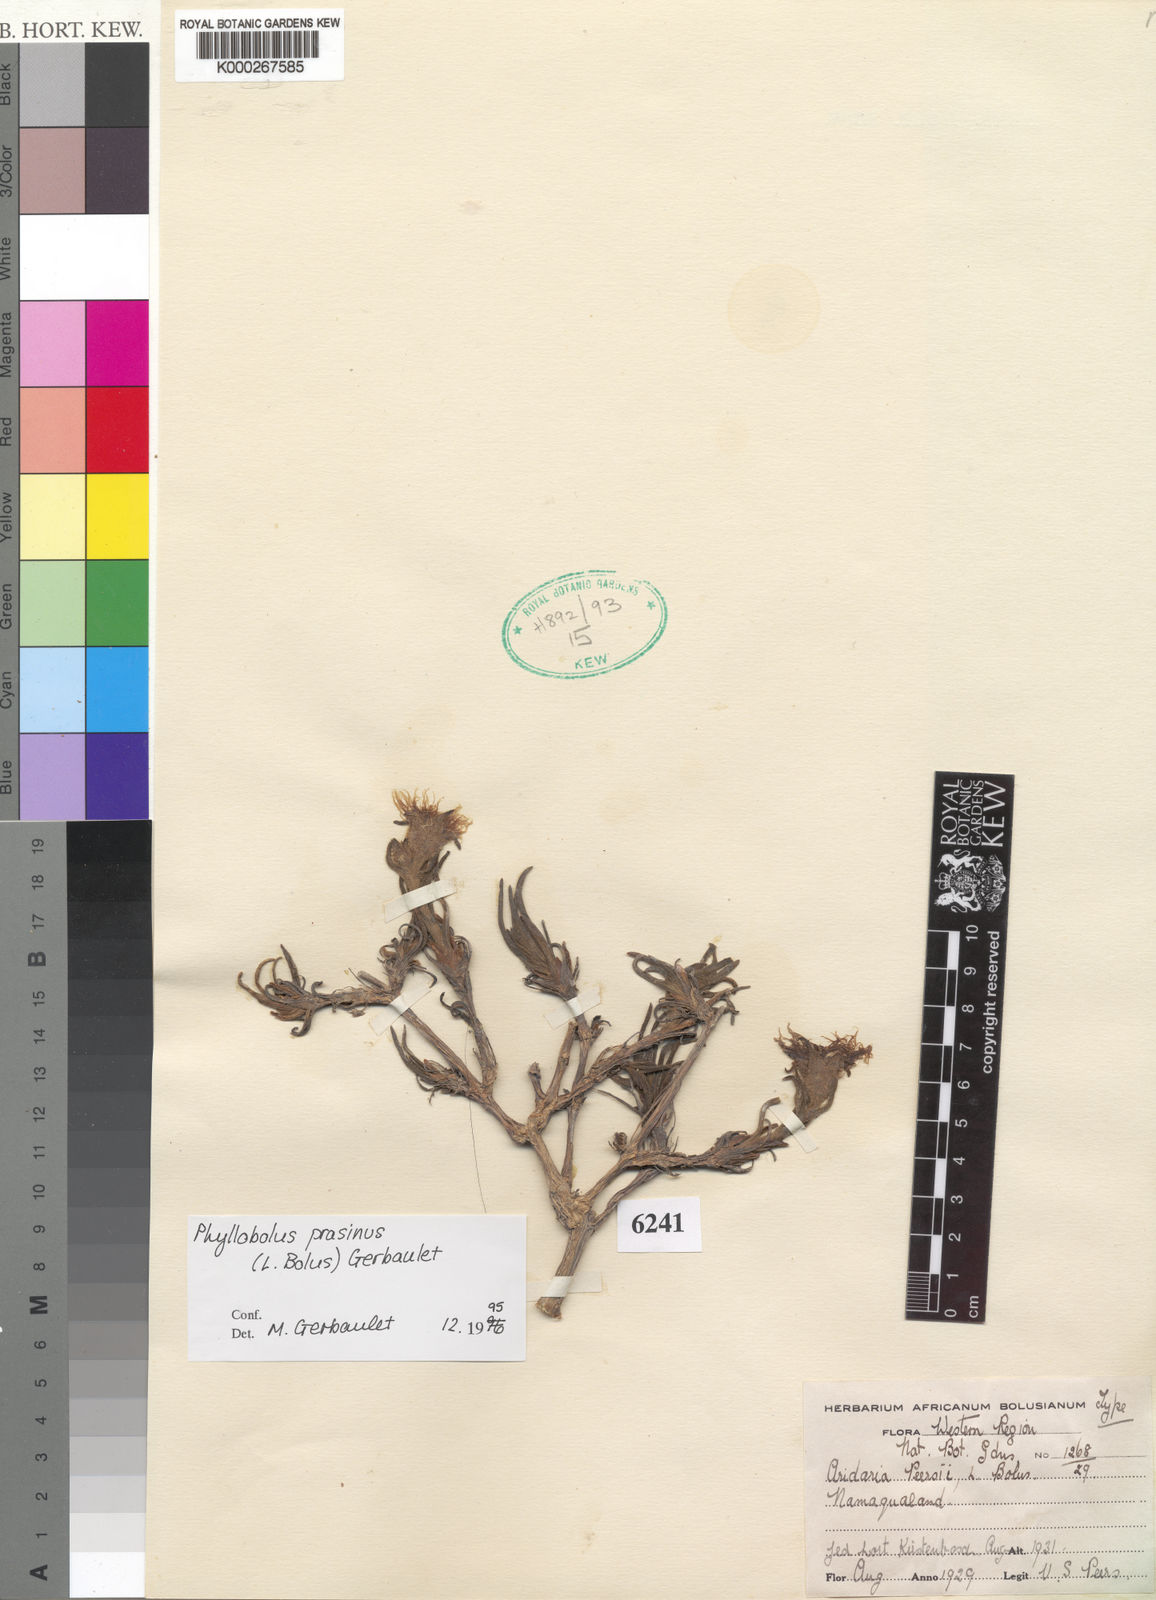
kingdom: Plantae
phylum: Tracheophyta
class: Magnoliopsida
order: Caryophyllales
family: Aizoaceae
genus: Mesembryanthemum
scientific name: Mesembryanthemum prasinum
